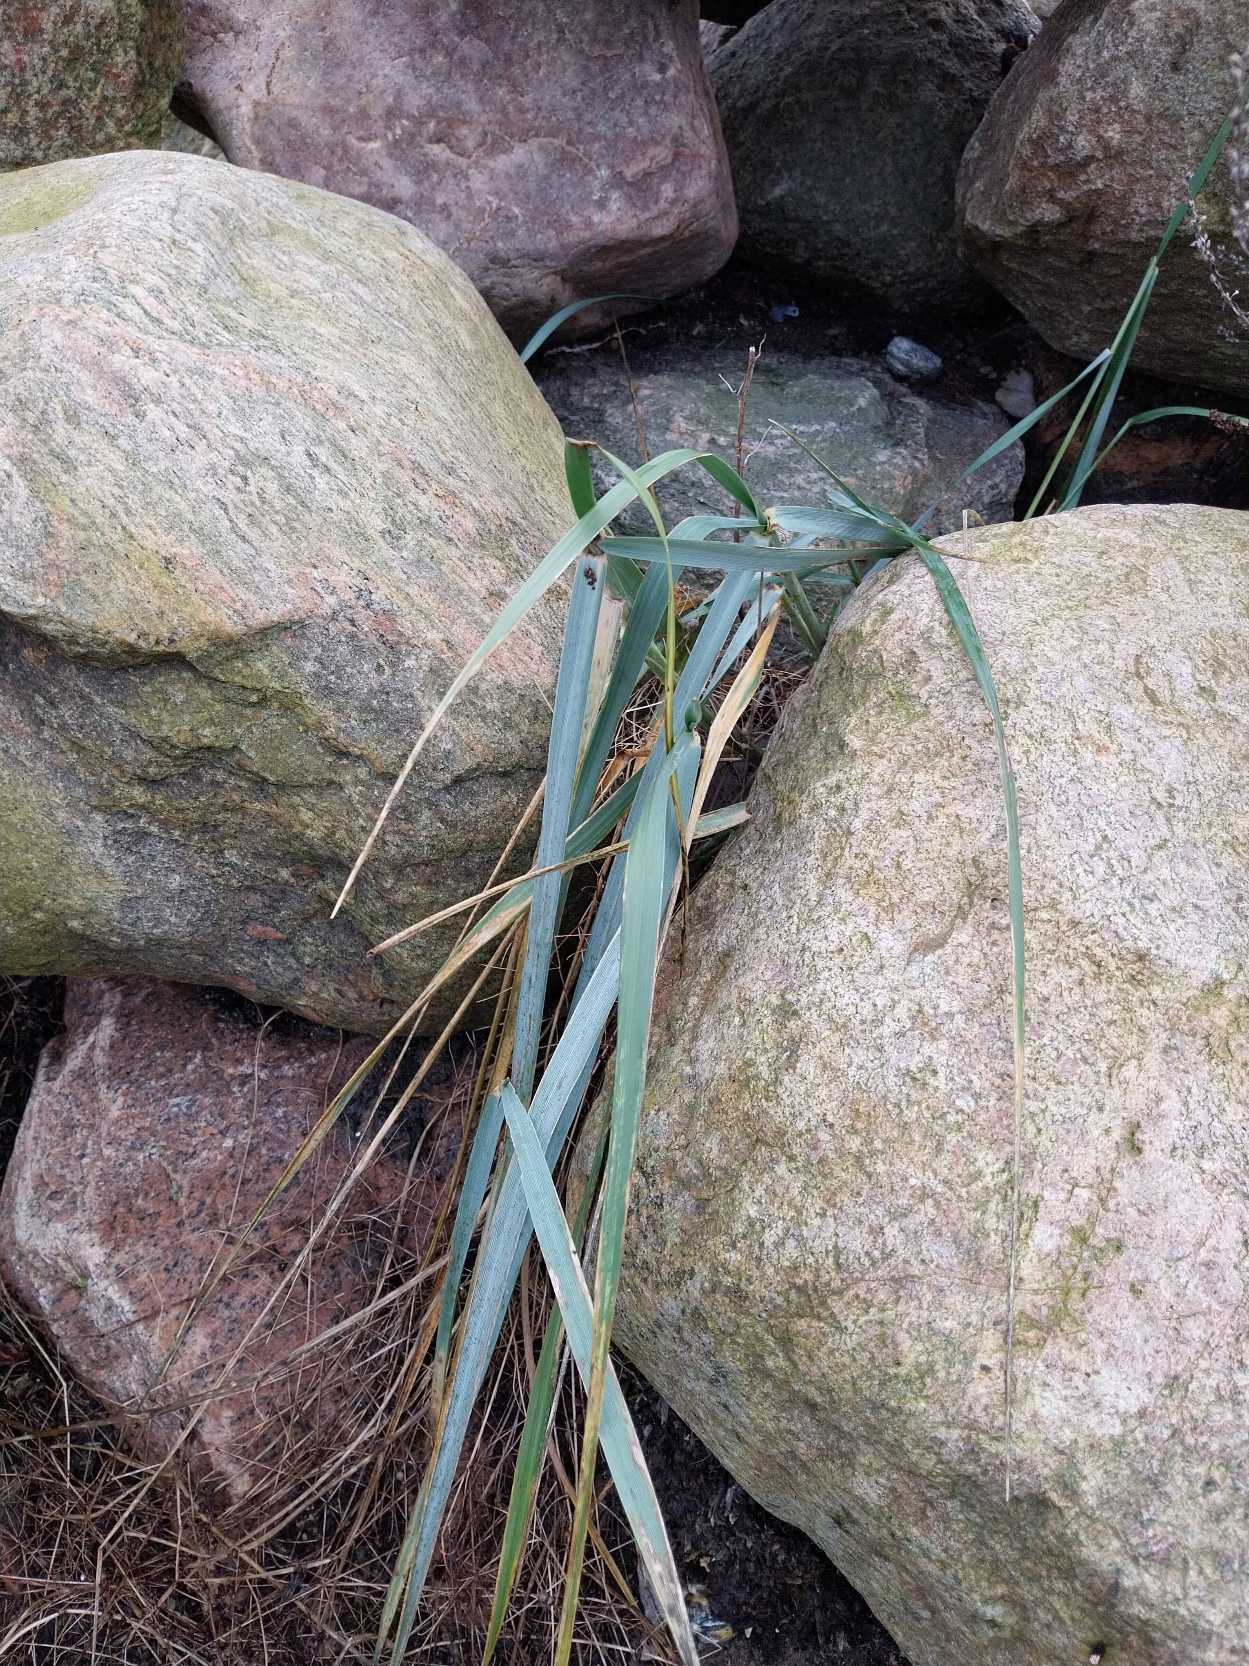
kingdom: Plantae
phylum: Tracheophyta
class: Liliopsida
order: Poales
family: Poaceae
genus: Leymus
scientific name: Leymus arenarius
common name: Marehalm
